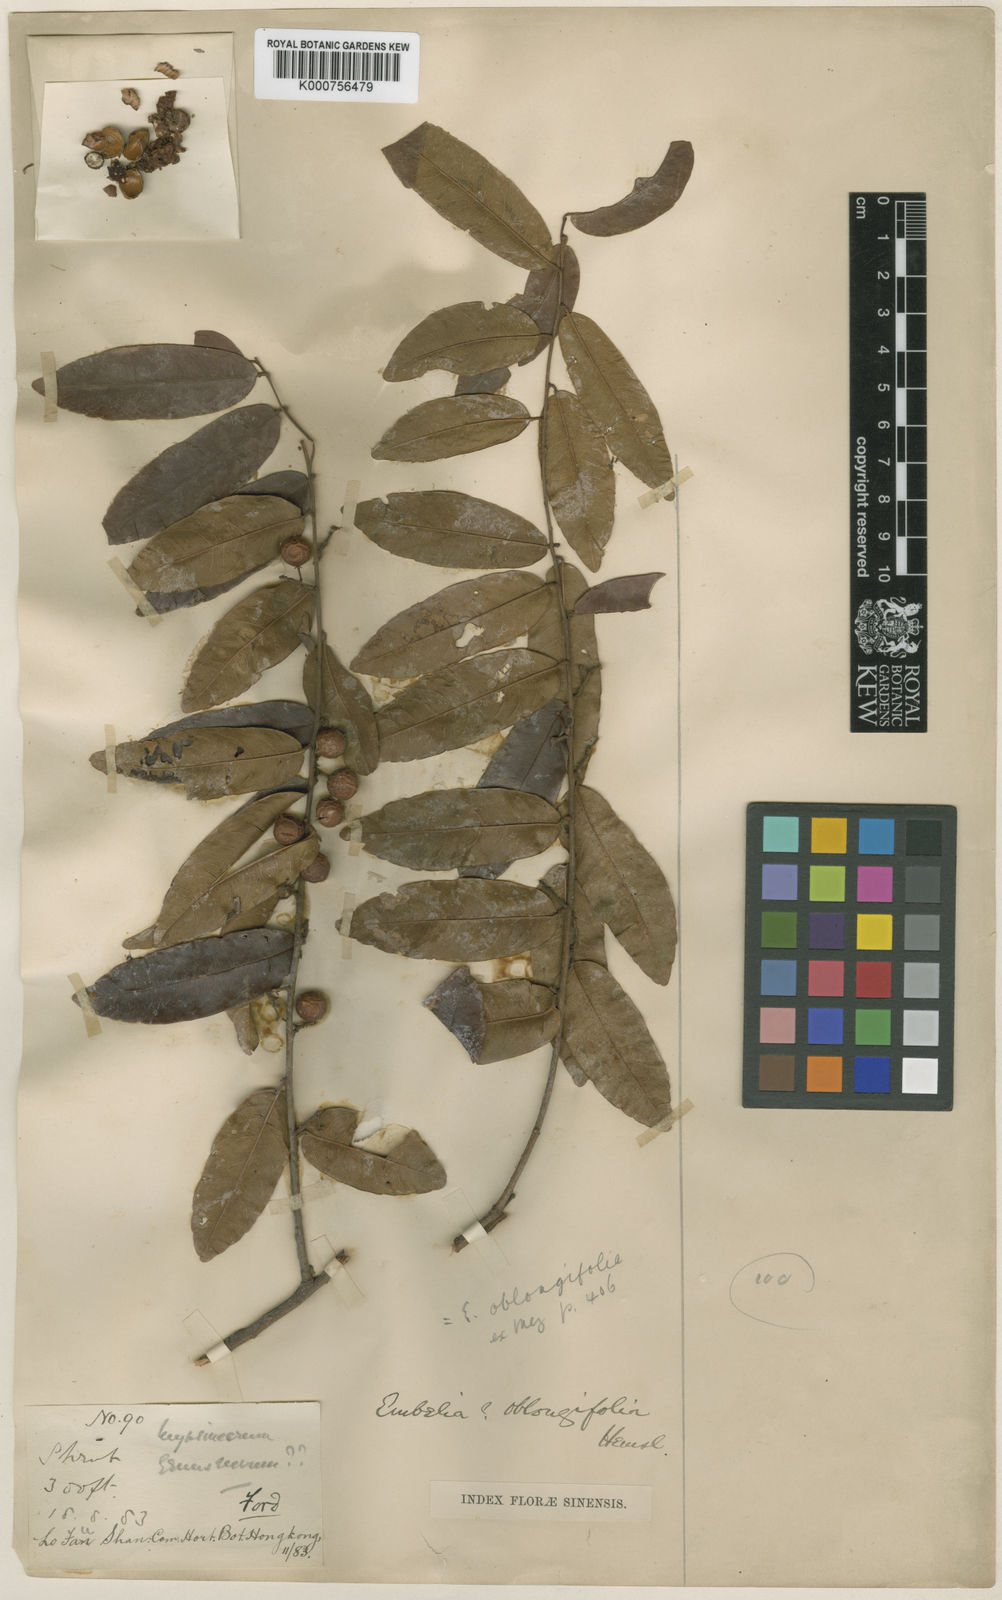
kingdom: Plantae
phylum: Tracheophyta
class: Magnoliopsida
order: Ericales
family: Primulaceae
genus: Embelia
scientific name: Embelia vestita
